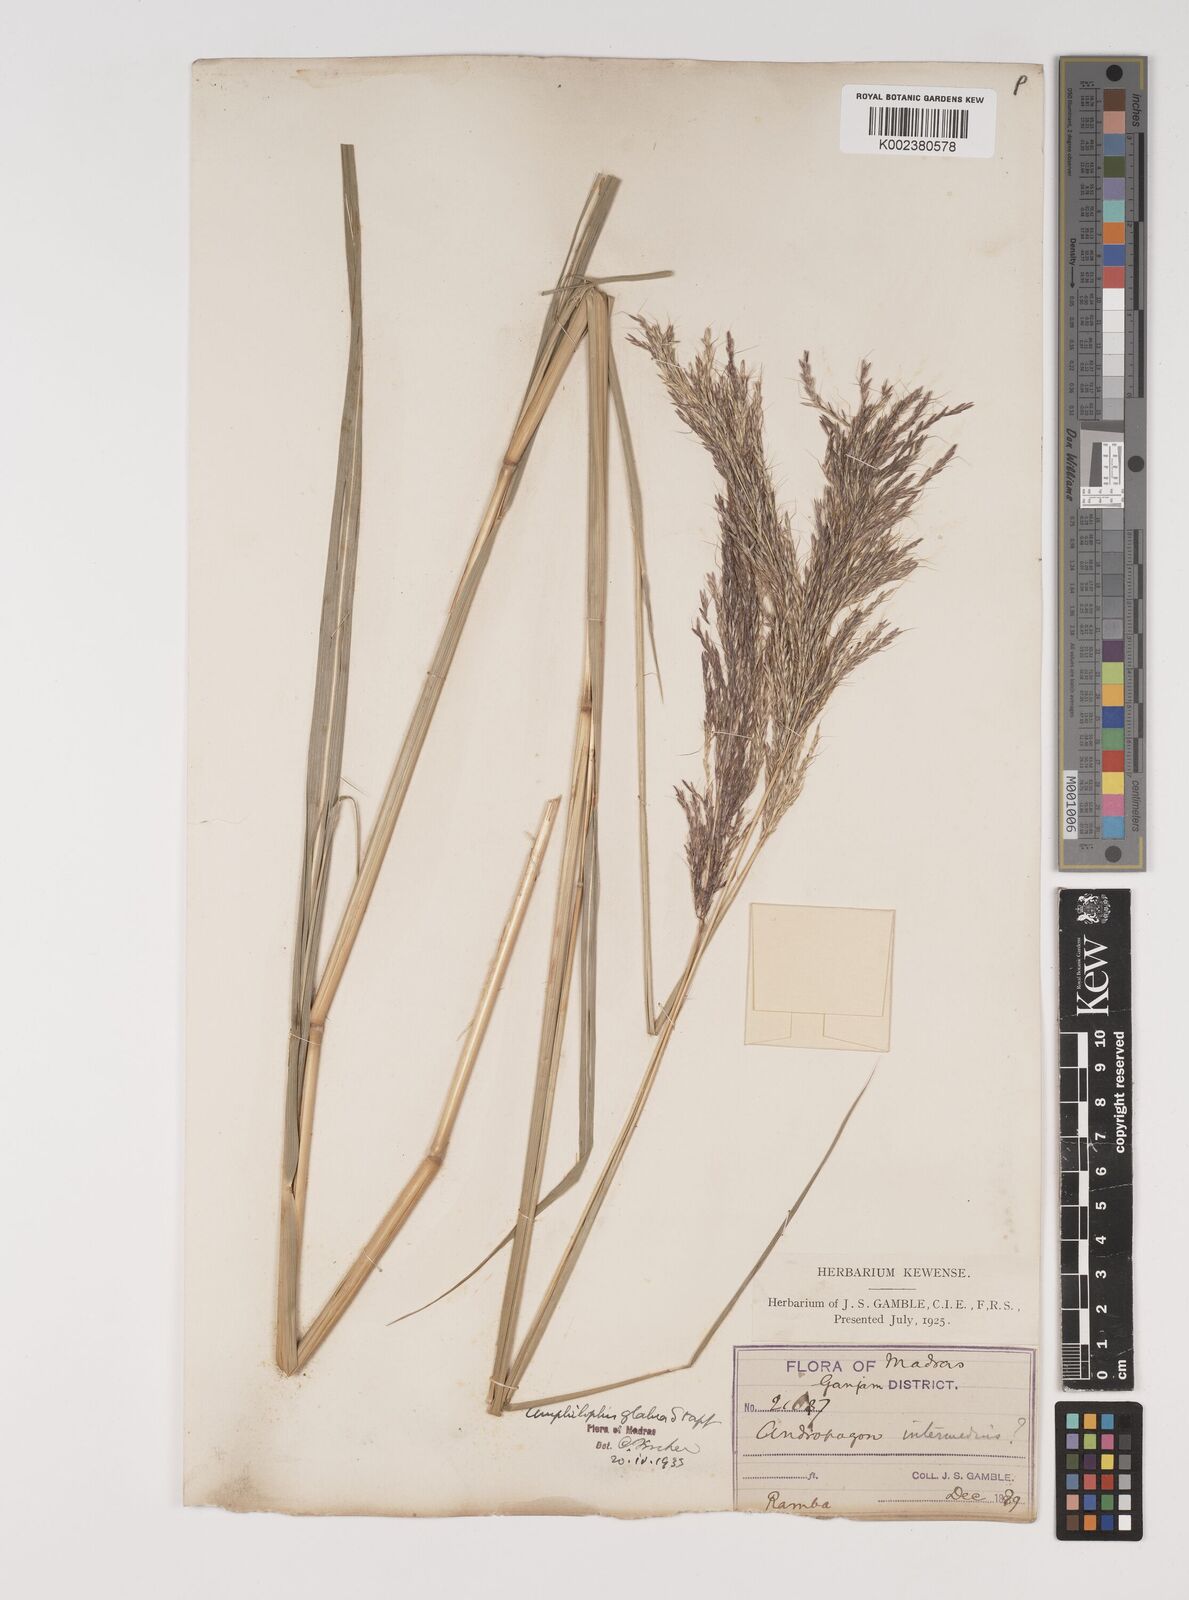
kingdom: Plantae
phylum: Tracheophyta
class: Liliopsida
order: Poales
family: Poaceae
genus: Bothriochloa
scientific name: Bothriochloa bladhii
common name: Caucasian bluestem
